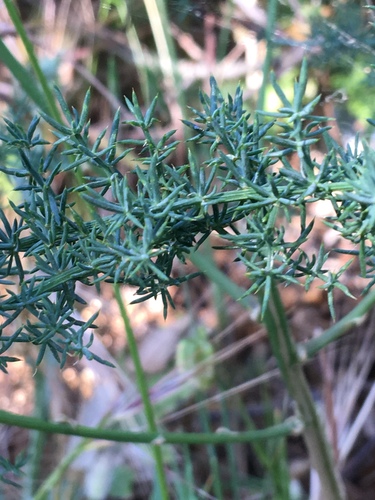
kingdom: Plantae
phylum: Tracheophyta
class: Liliopsida
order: Asparagales
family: Asparagaceae
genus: Asparagus
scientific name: Asparagus acutifolius
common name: Wild asparagus
